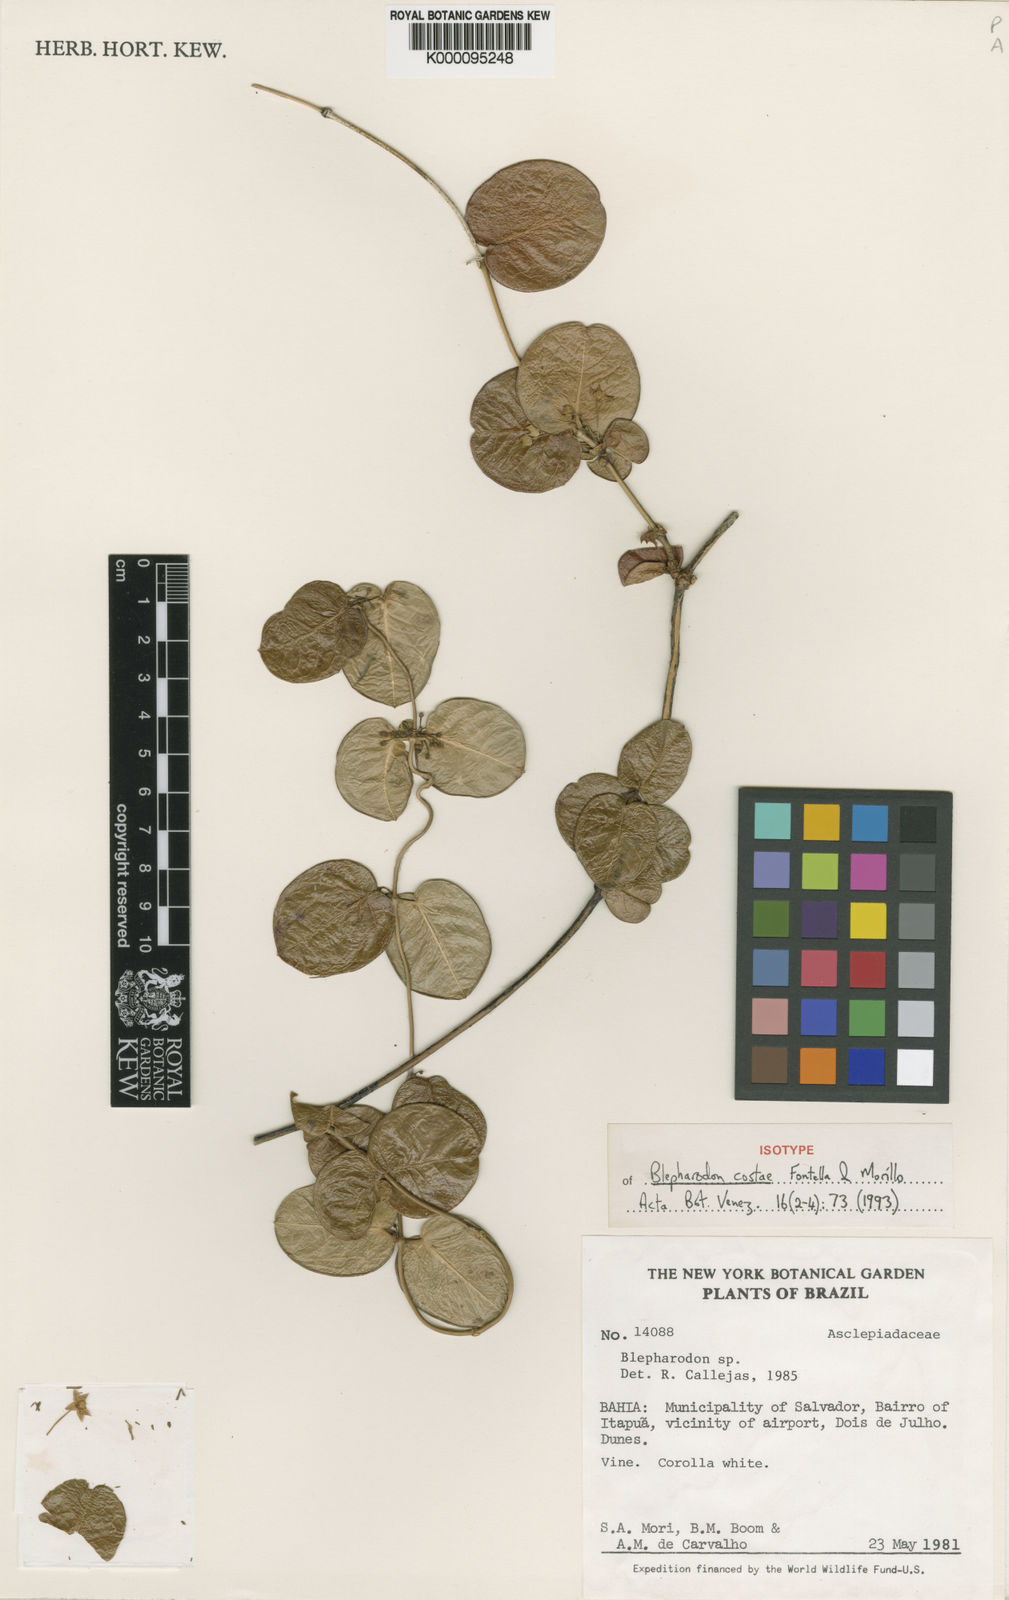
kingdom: Plantae
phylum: Tracheophyta
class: Magnoliopsida
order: Gentianales
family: Apocynaceae
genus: Blepharodon
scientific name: Blepharodon costae
